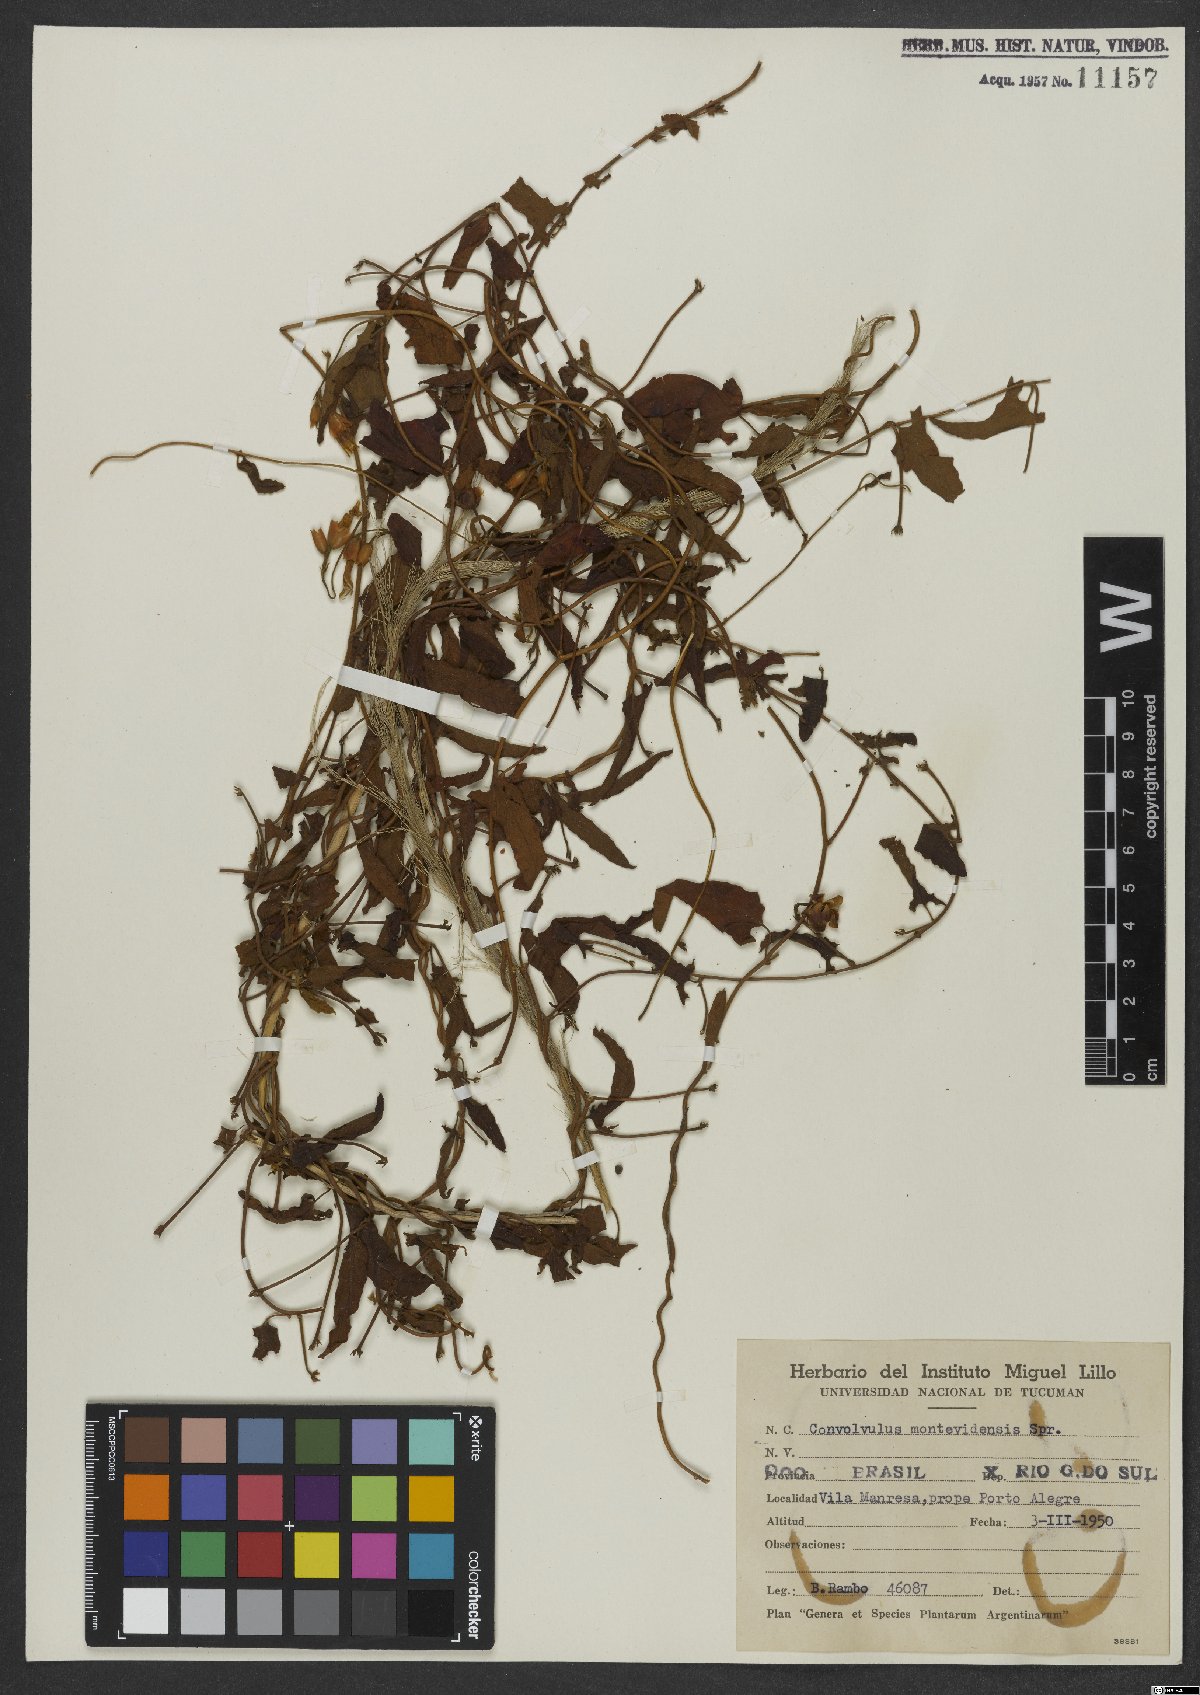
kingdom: Plantae
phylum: Tracheophyta
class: Magnoliopsida
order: Solanales
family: Convolvulaceae
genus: Convolvulus
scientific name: Convolvulus crenatifolius
